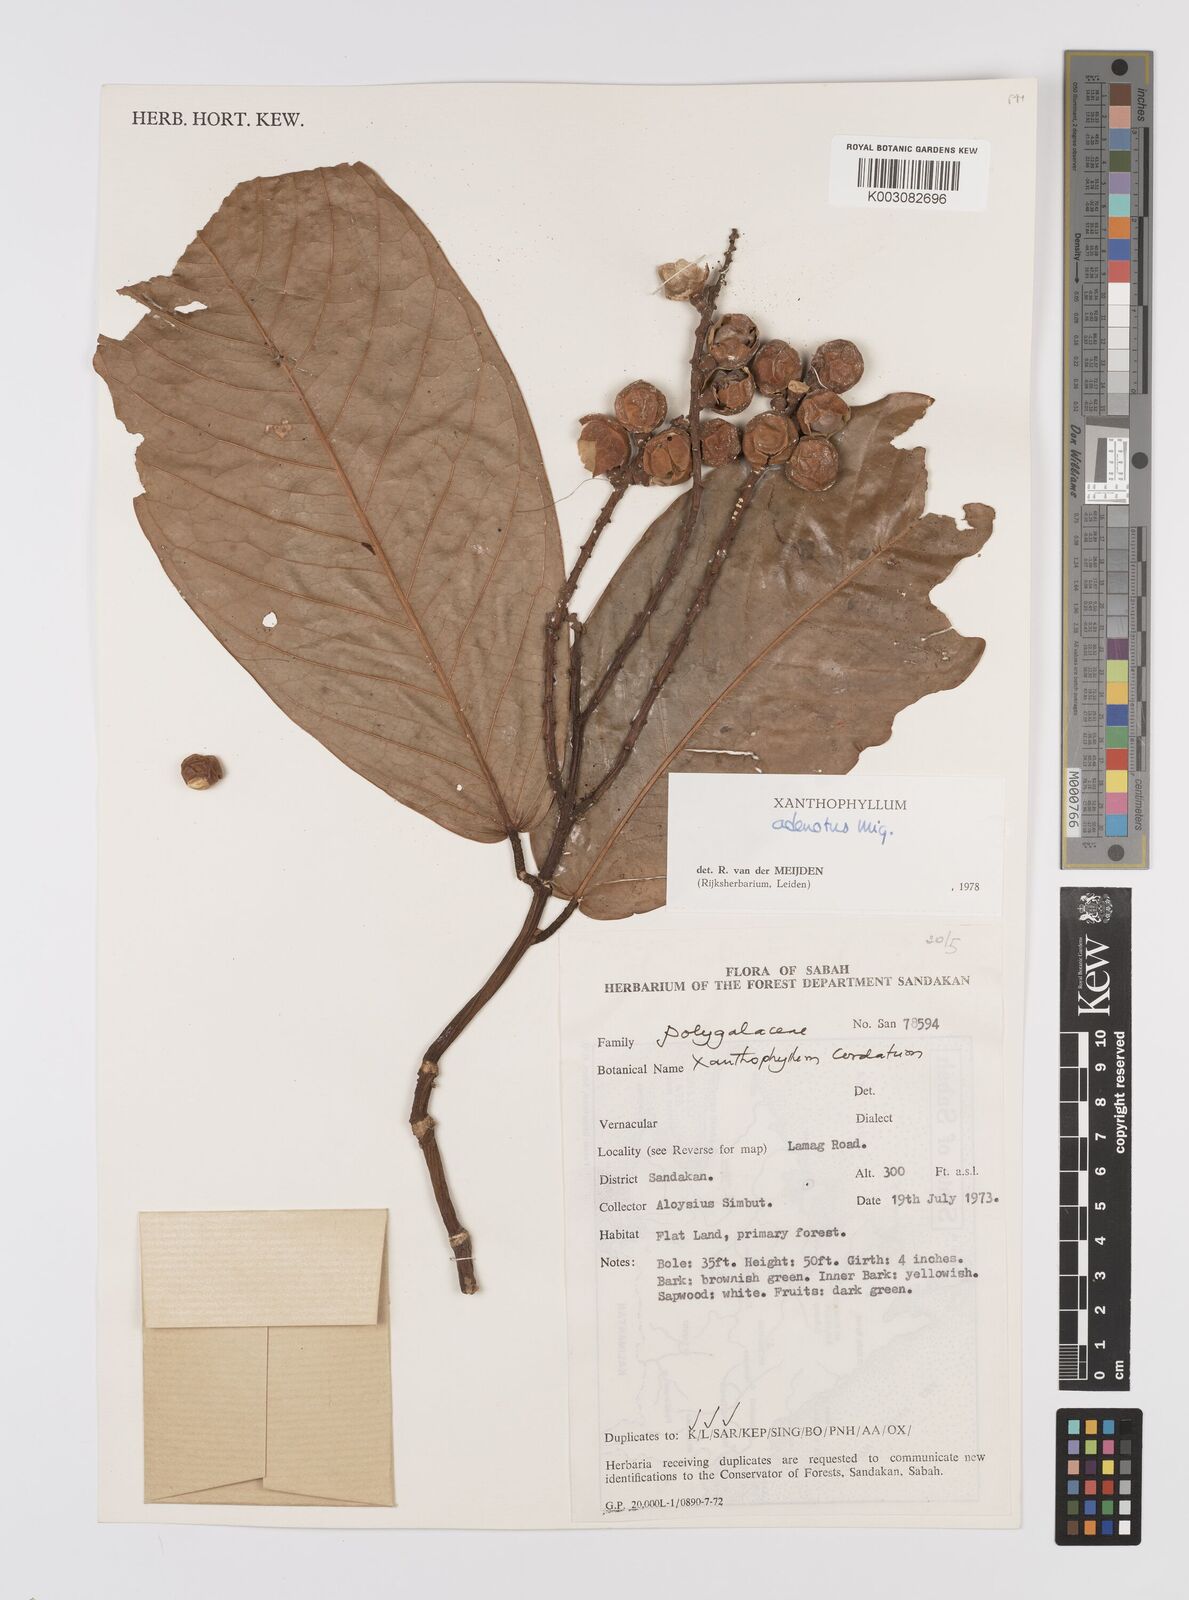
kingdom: Plantae
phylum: Tracheophyta
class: Magnoliopsida
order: Fabales
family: Polygalaceae
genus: Xanthophyllum
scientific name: Xanthophyllum adenotus
